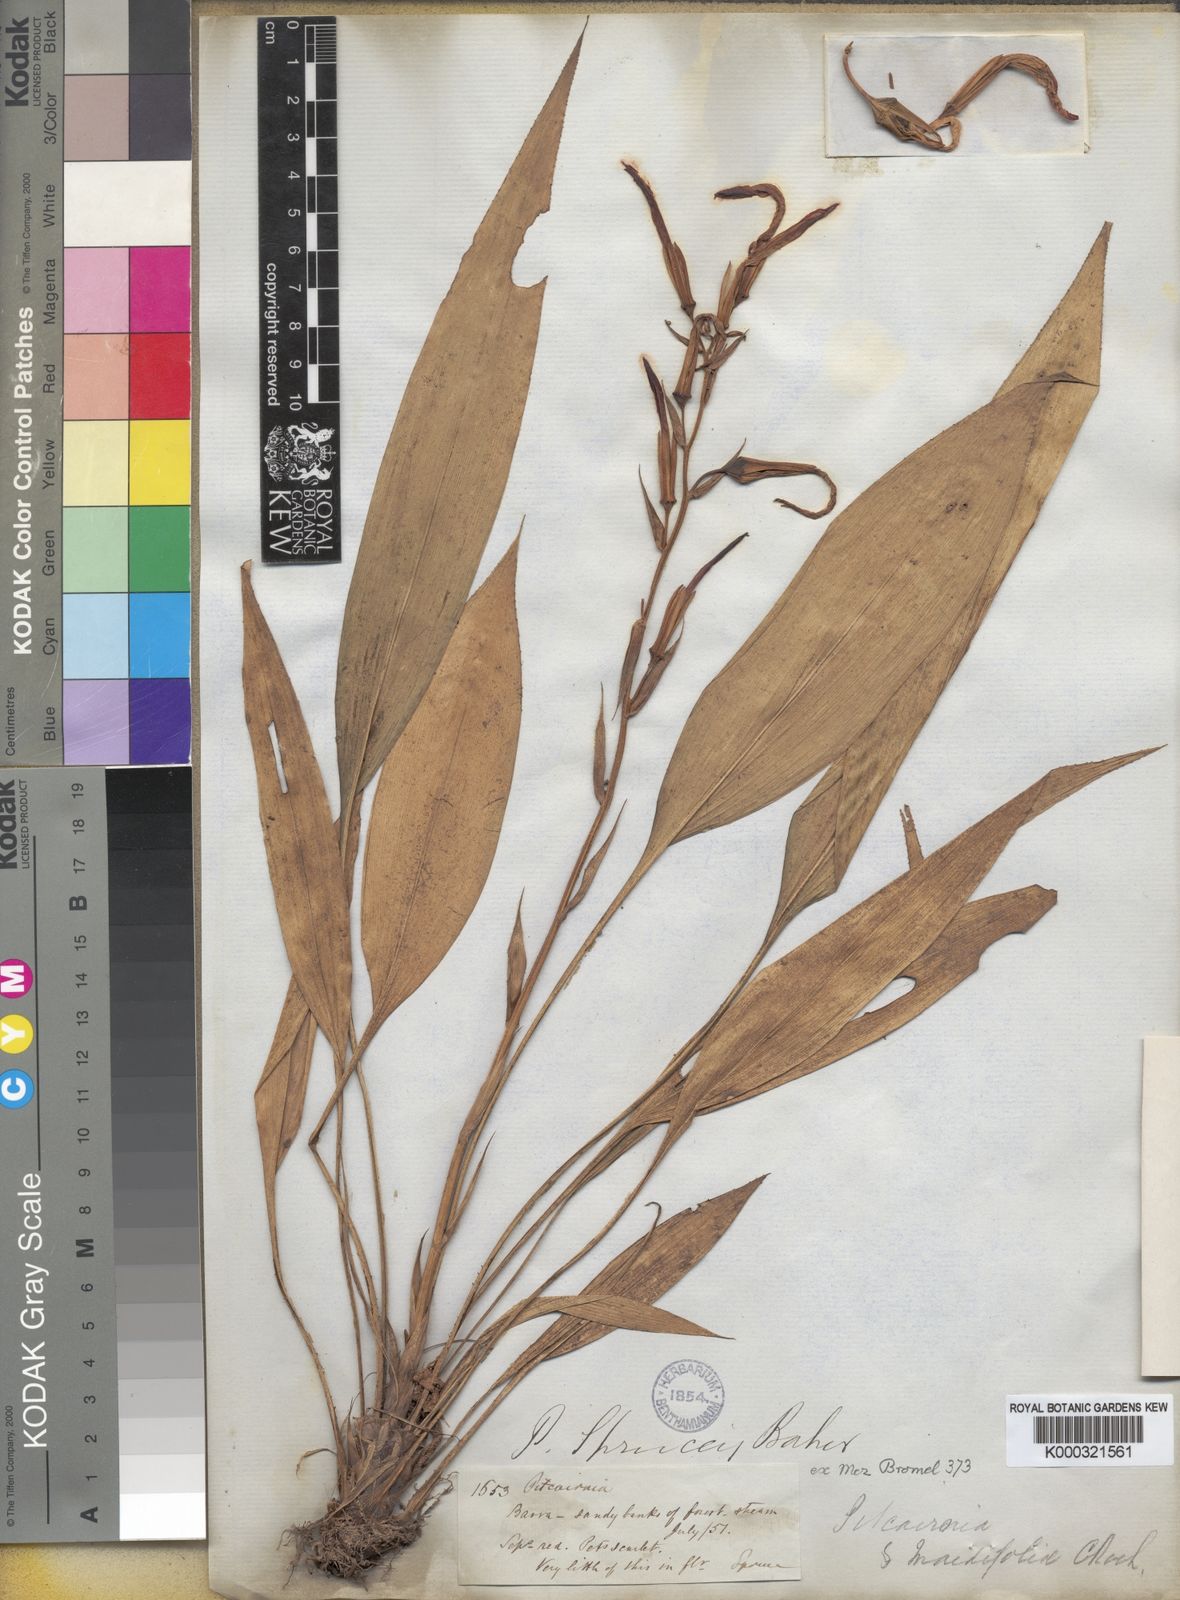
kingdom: Plantae
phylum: Tracheophyta
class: Liliopsida
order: Poales
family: Bromeliaceae
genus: Pitcairnia
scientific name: Pitcairnia sprucei
